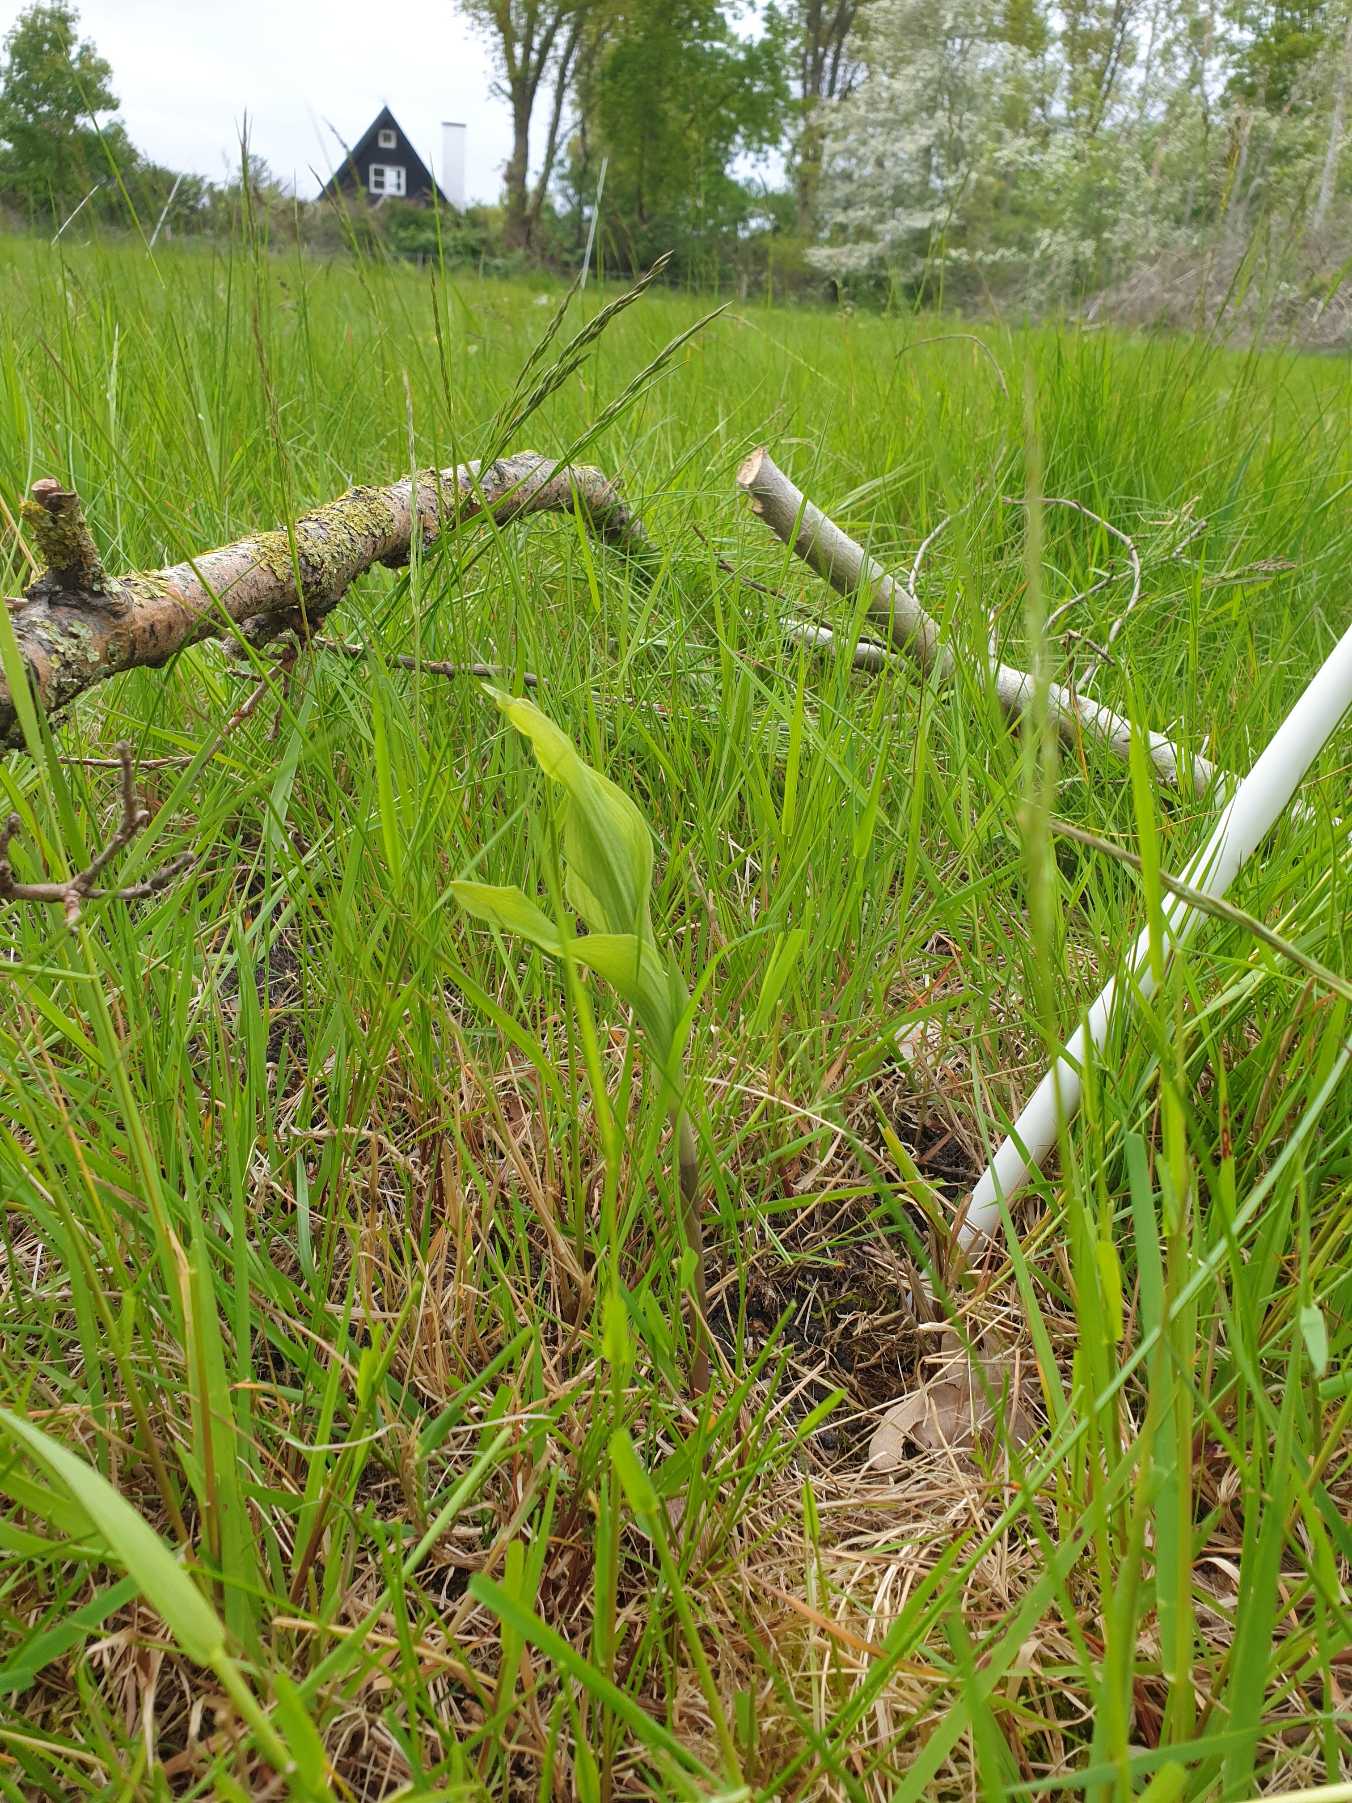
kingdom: Plantae
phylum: Tracheophyta
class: Liliopsida
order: Asparagales
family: Orchidaceae
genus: Epipactis
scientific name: Epipactis helleborine
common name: Skov-hullæbe
